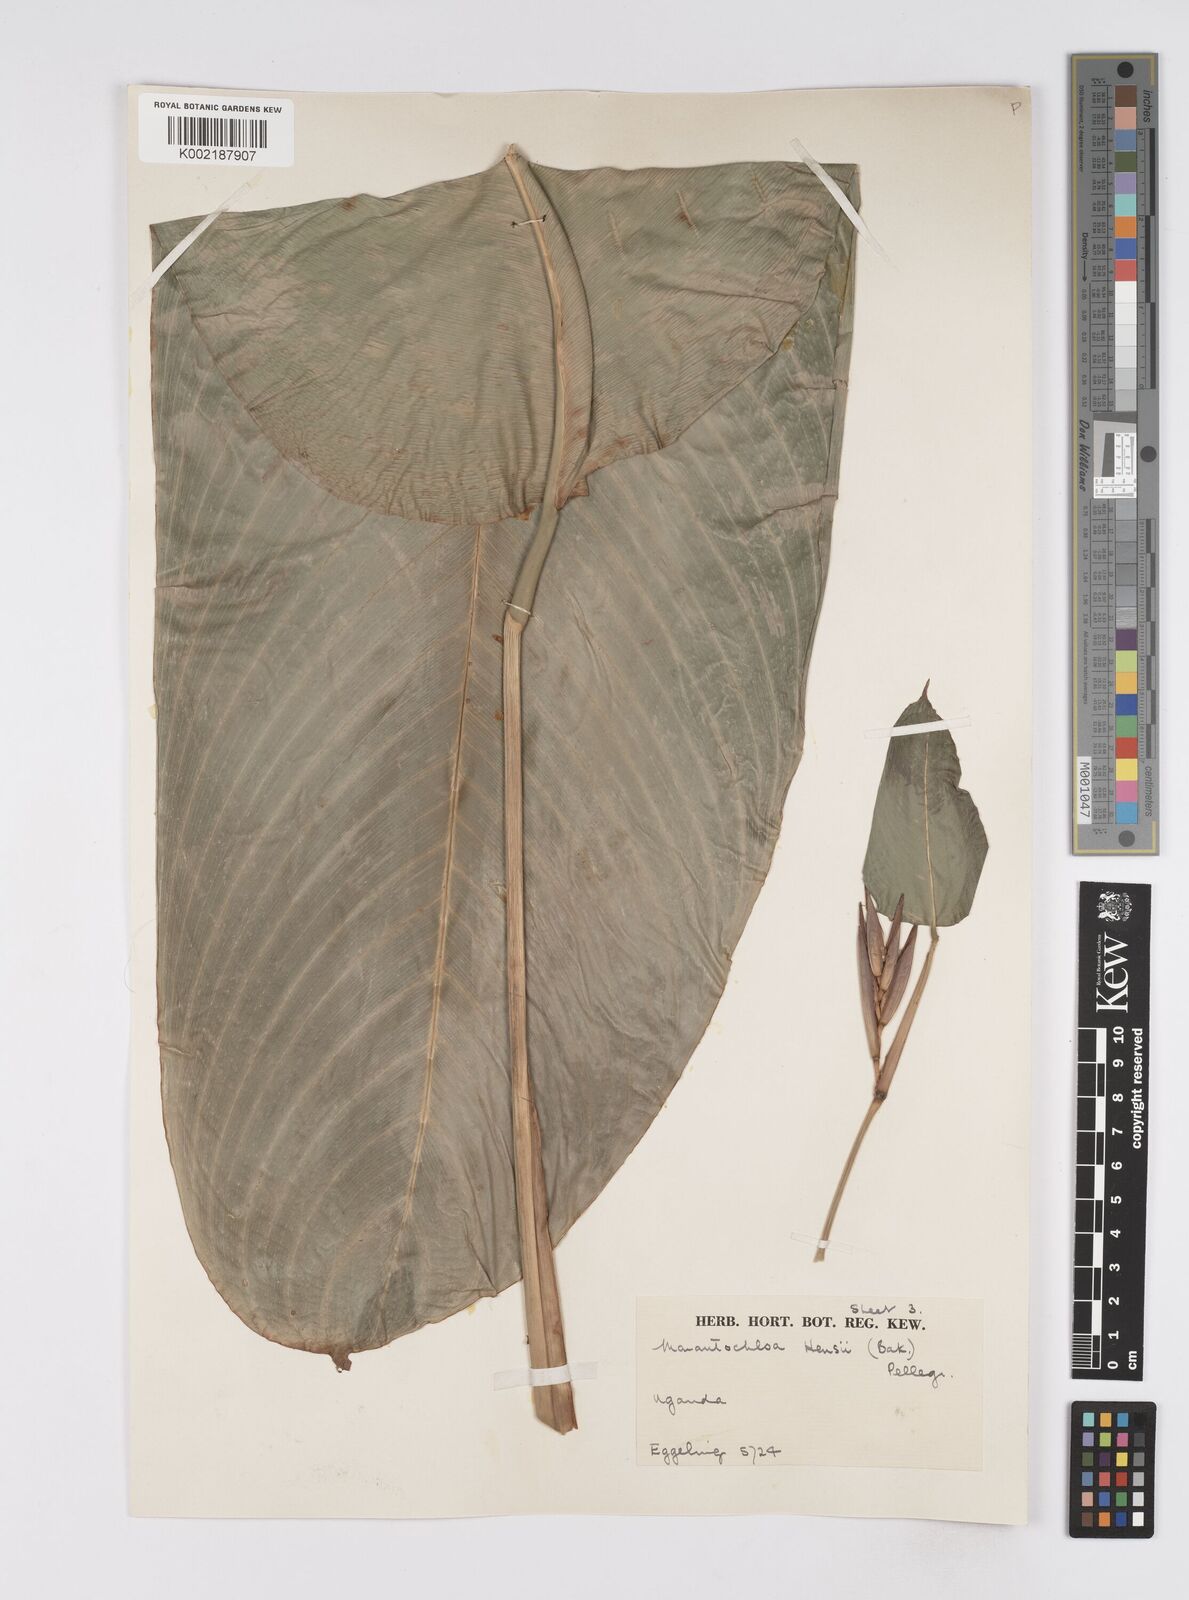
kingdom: Plantae
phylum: Tracheophyta
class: Liliopsida
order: Zingiberales
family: Marantaceae
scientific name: Marantaceae
